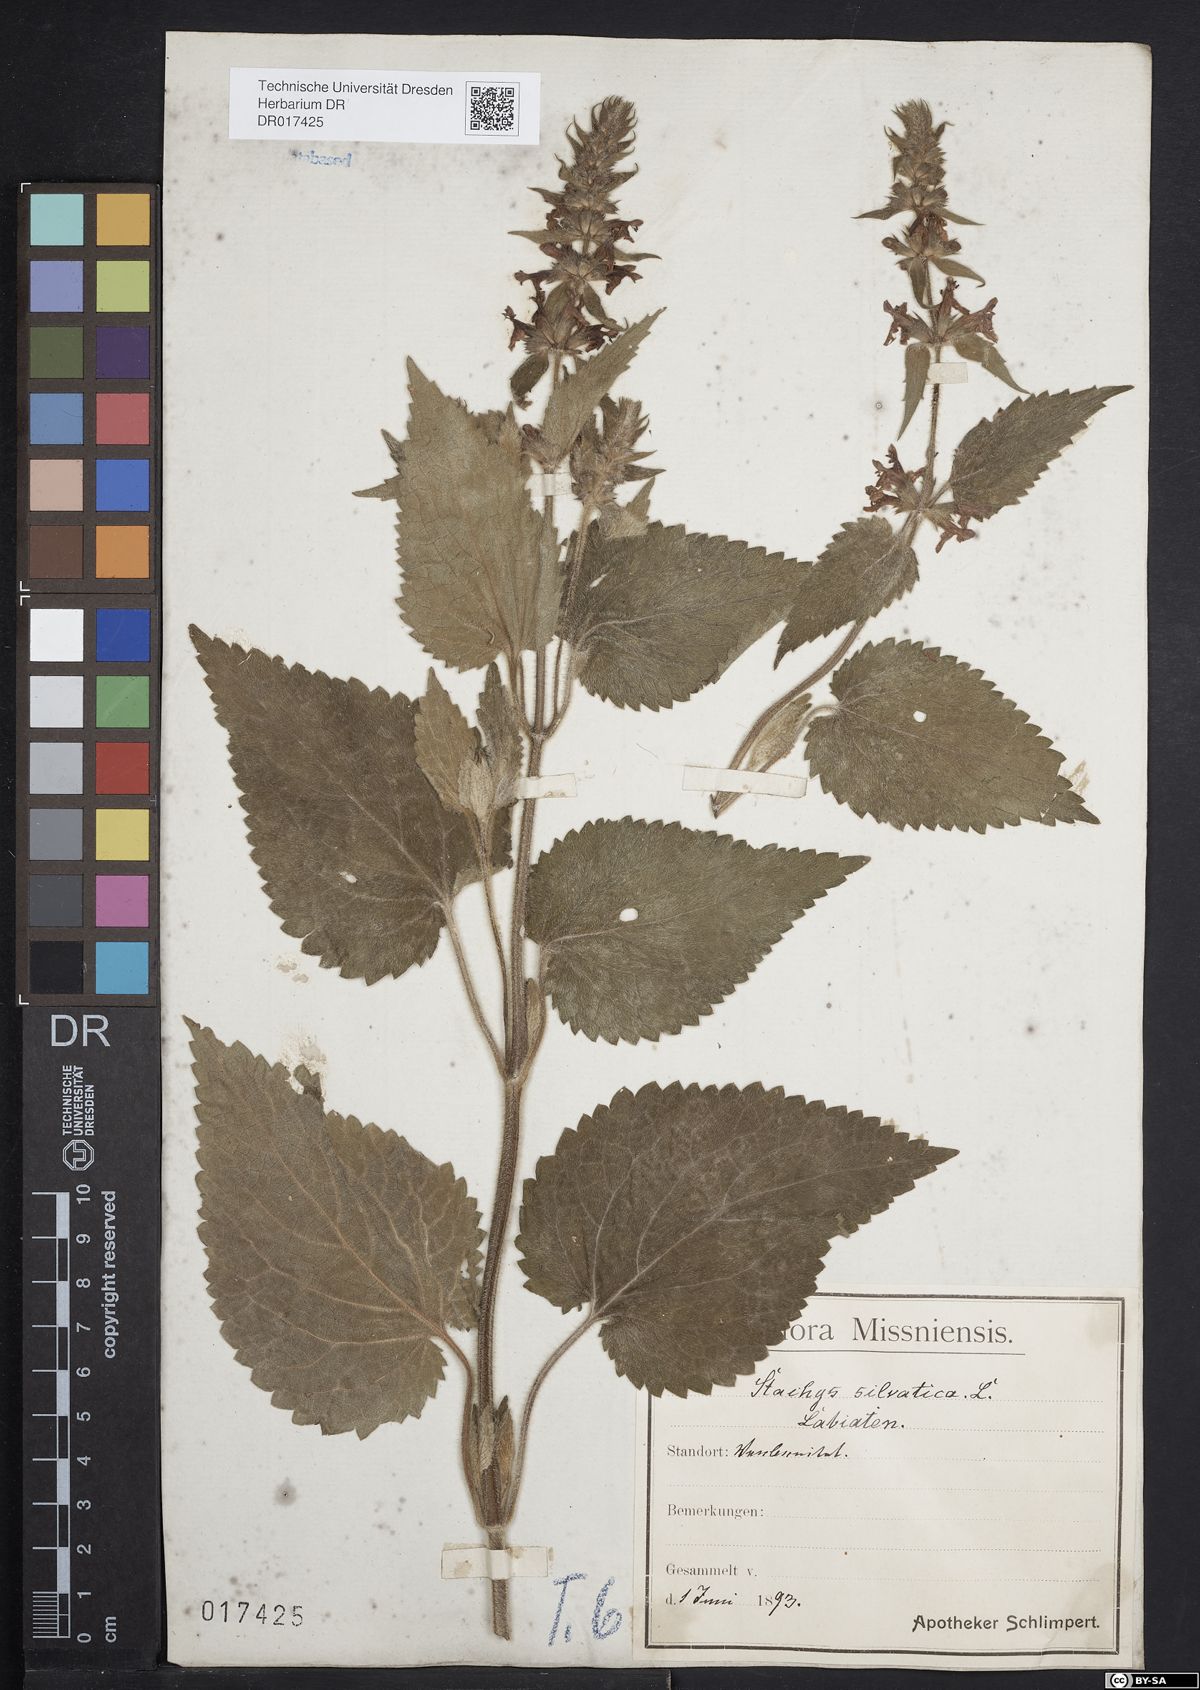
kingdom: Plantae
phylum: Tracheophyta
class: Magnoliopsida
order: Lamiales
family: Lamiaceae
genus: Stachys
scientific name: Stachys sylvatica
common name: Hedge woundwort
